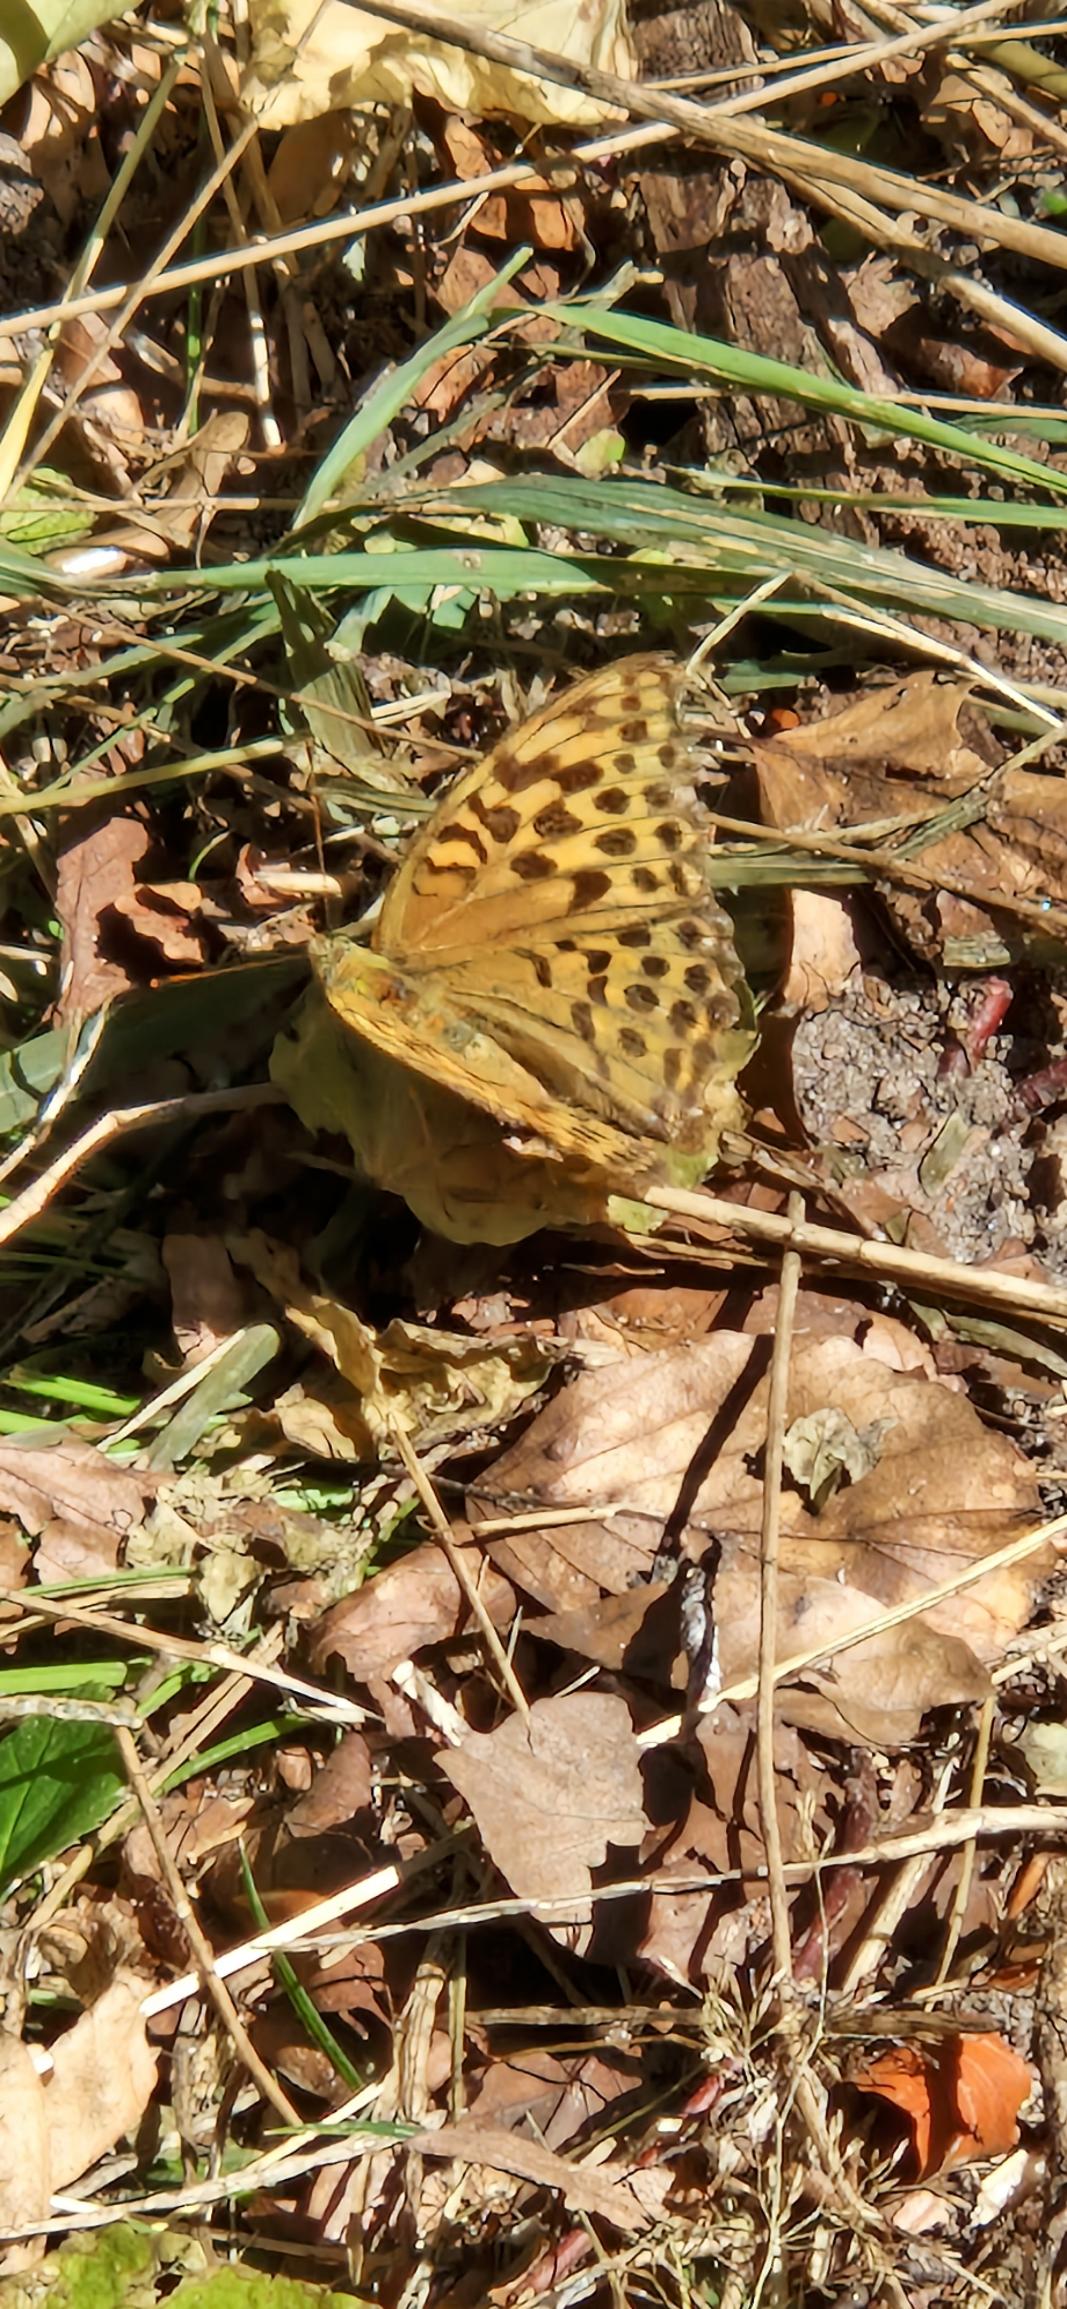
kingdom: Animalia
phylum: Arthropoda
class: Insecta
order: Lepidoptera
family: Nymphalidae
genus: Argynnis
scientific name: Argynnis paphia
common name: Kejserkåbe
